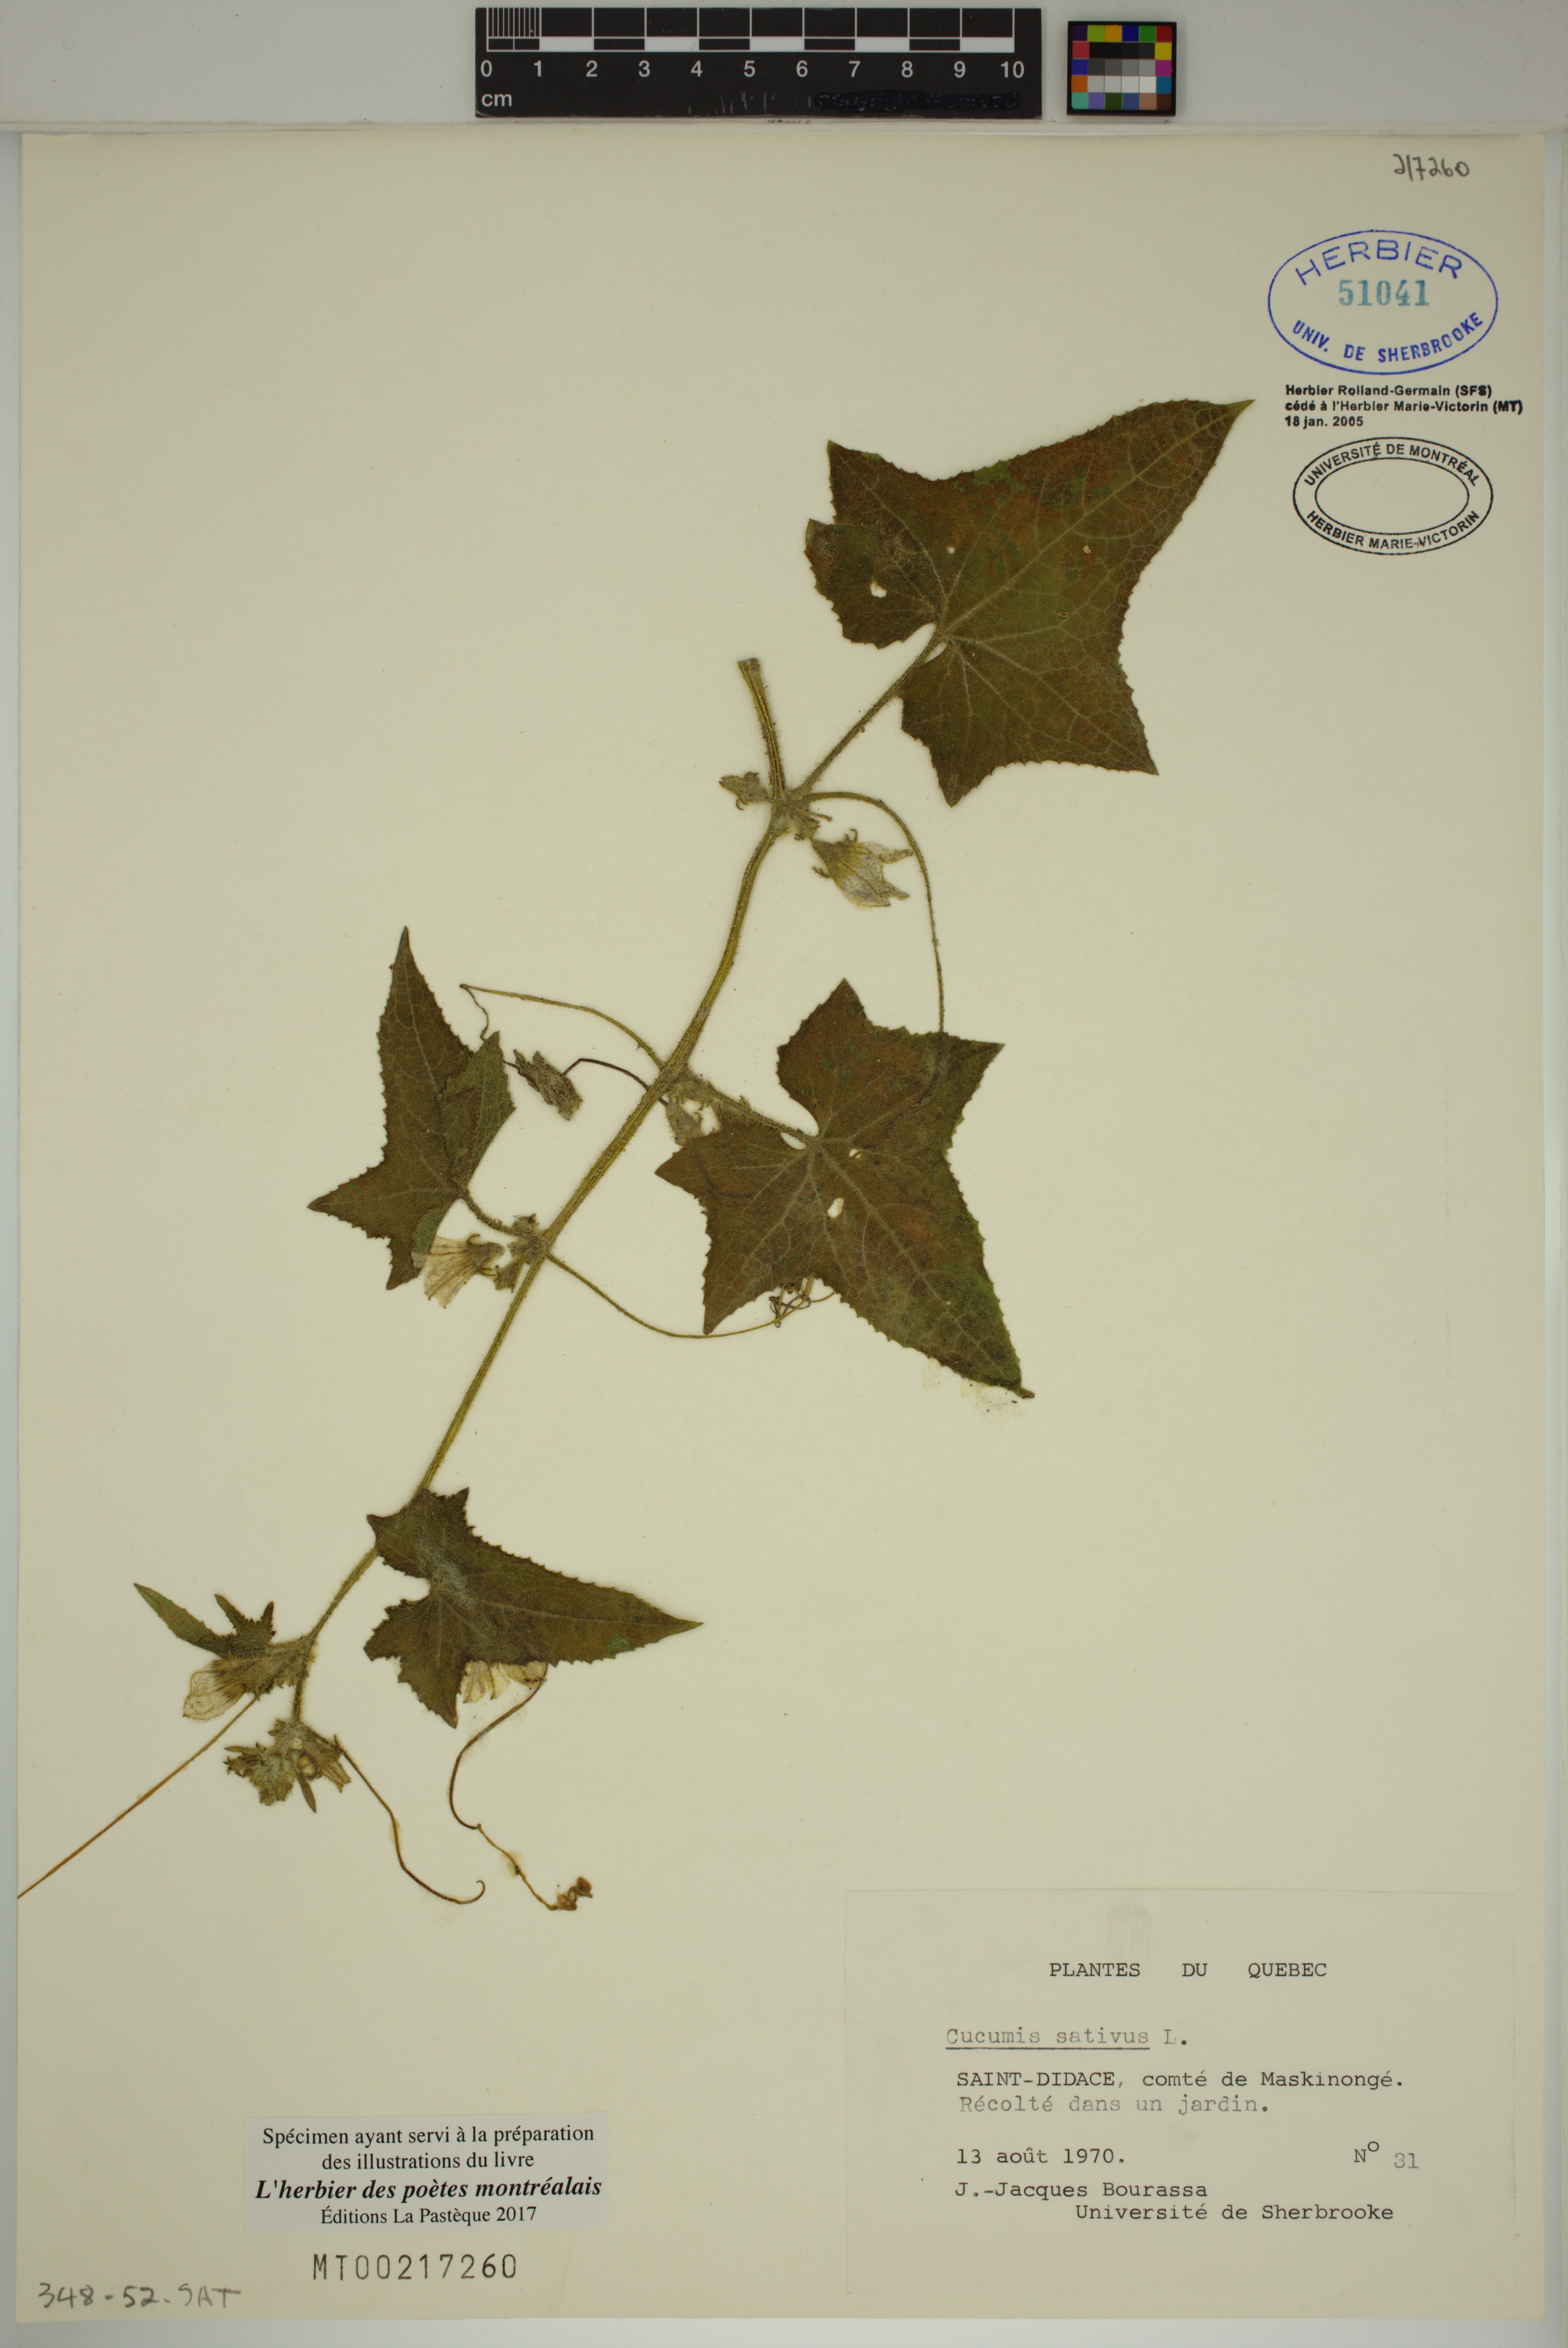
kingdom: Plantae
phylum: Tracheophyta
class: Magnoliopsida
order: Cucurbitales
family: Cucurbitaceae
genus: Cucumis
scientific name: Cucumis sativus
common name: Cucumber
